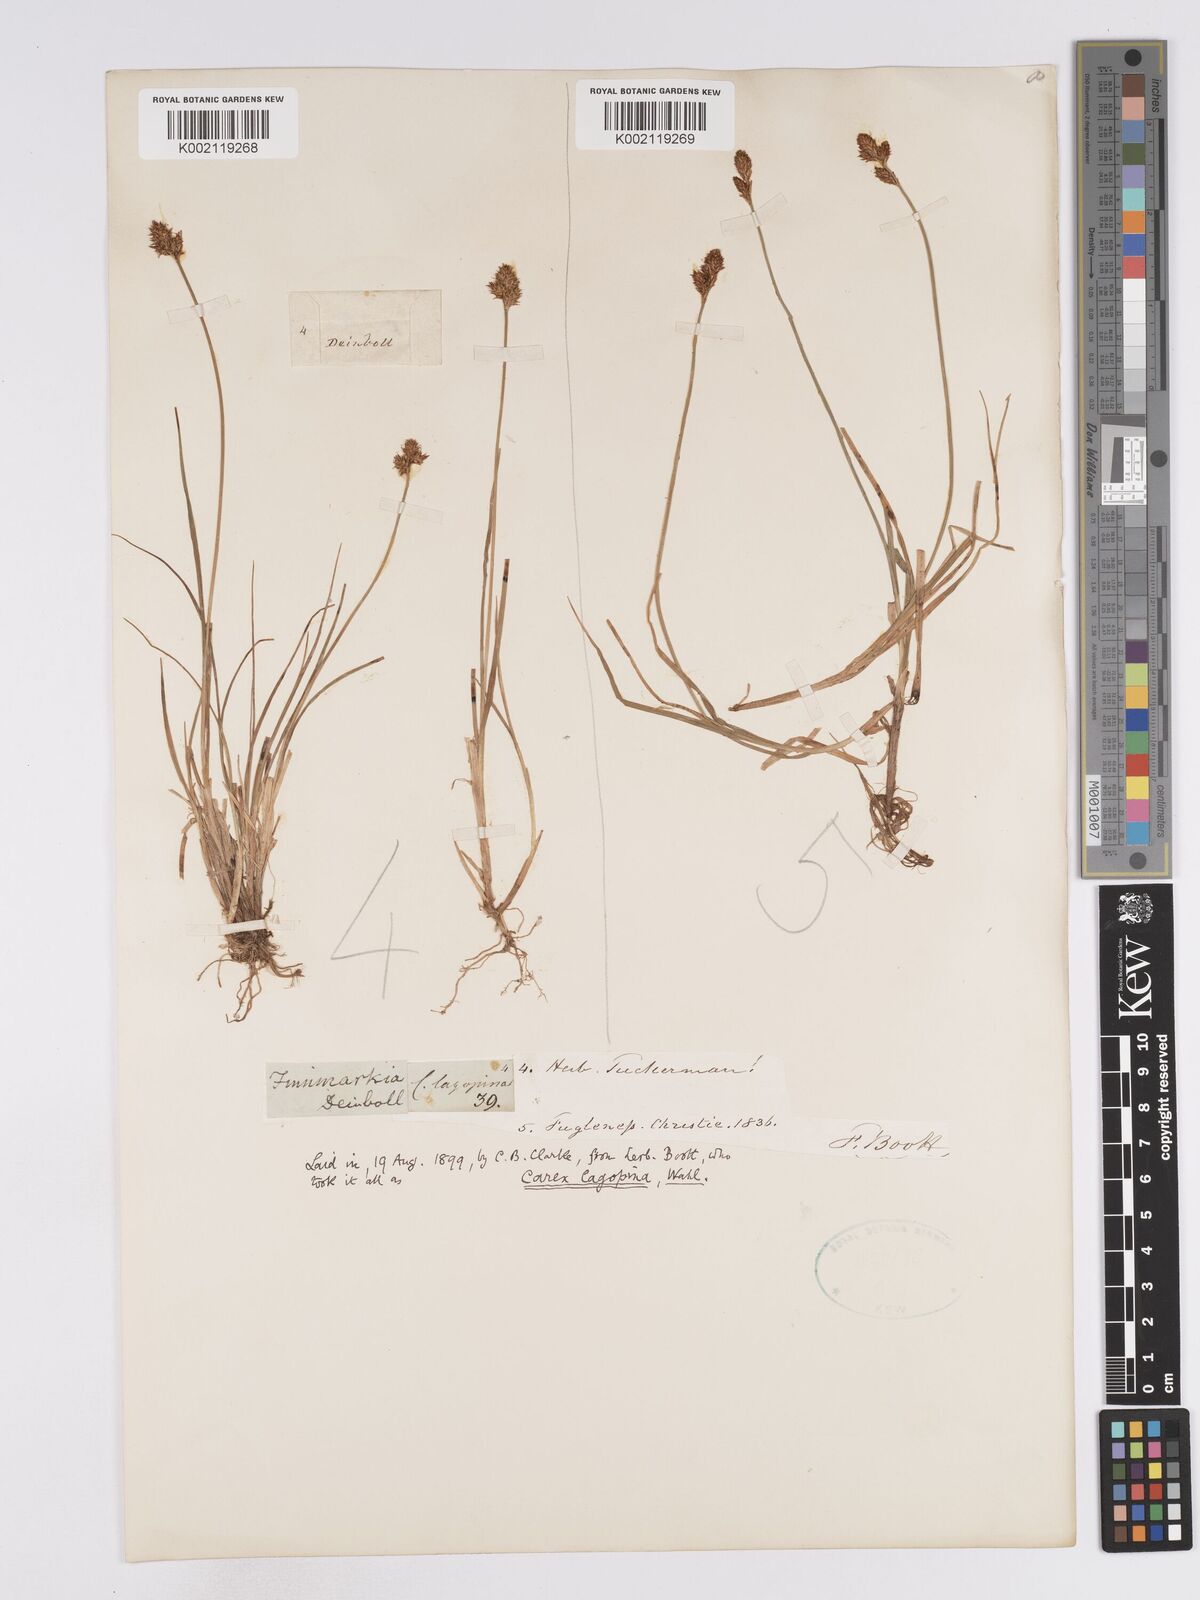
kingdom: Plantae
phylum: Tracheophyta
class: Liliopsida
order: Poales
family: Cyperaceae
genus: Carex
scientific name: Carex lachenalii
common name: Hare's-foot sedge
